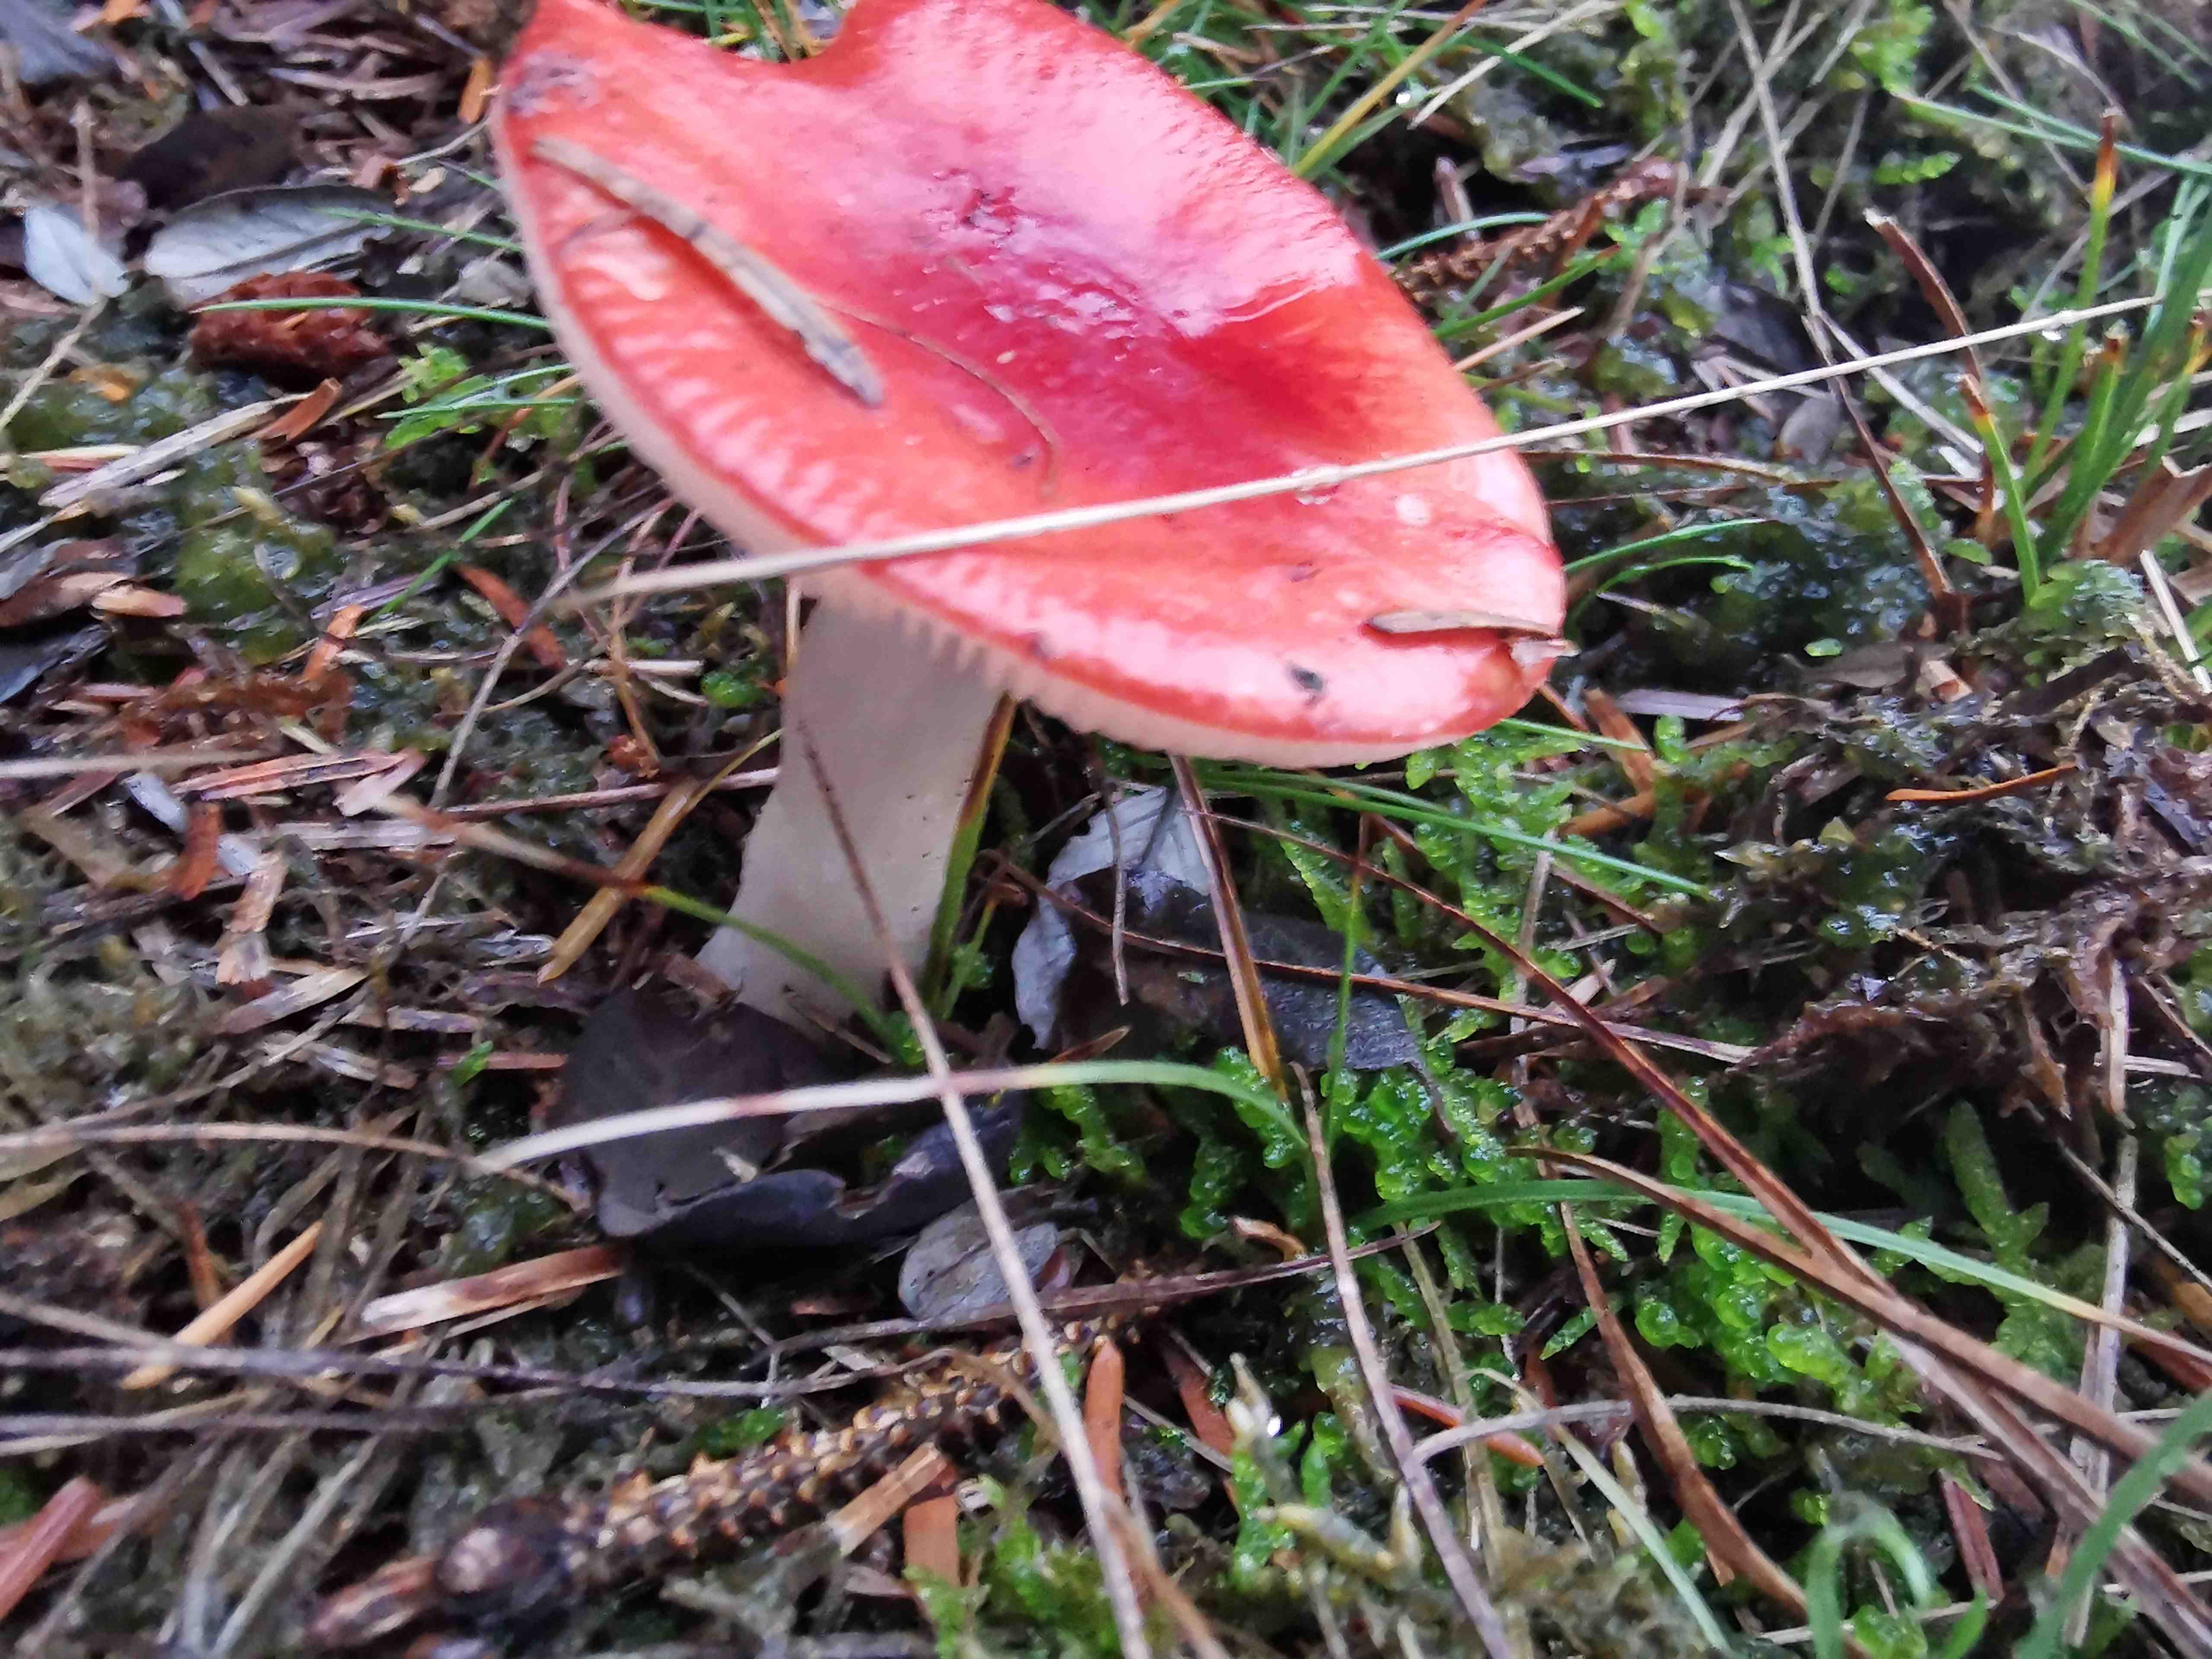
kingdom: Fungi
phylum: Basidiomycota
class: Agaricomycetes
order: Russulales
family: Russulaceae
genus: Russula
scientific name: Russula
